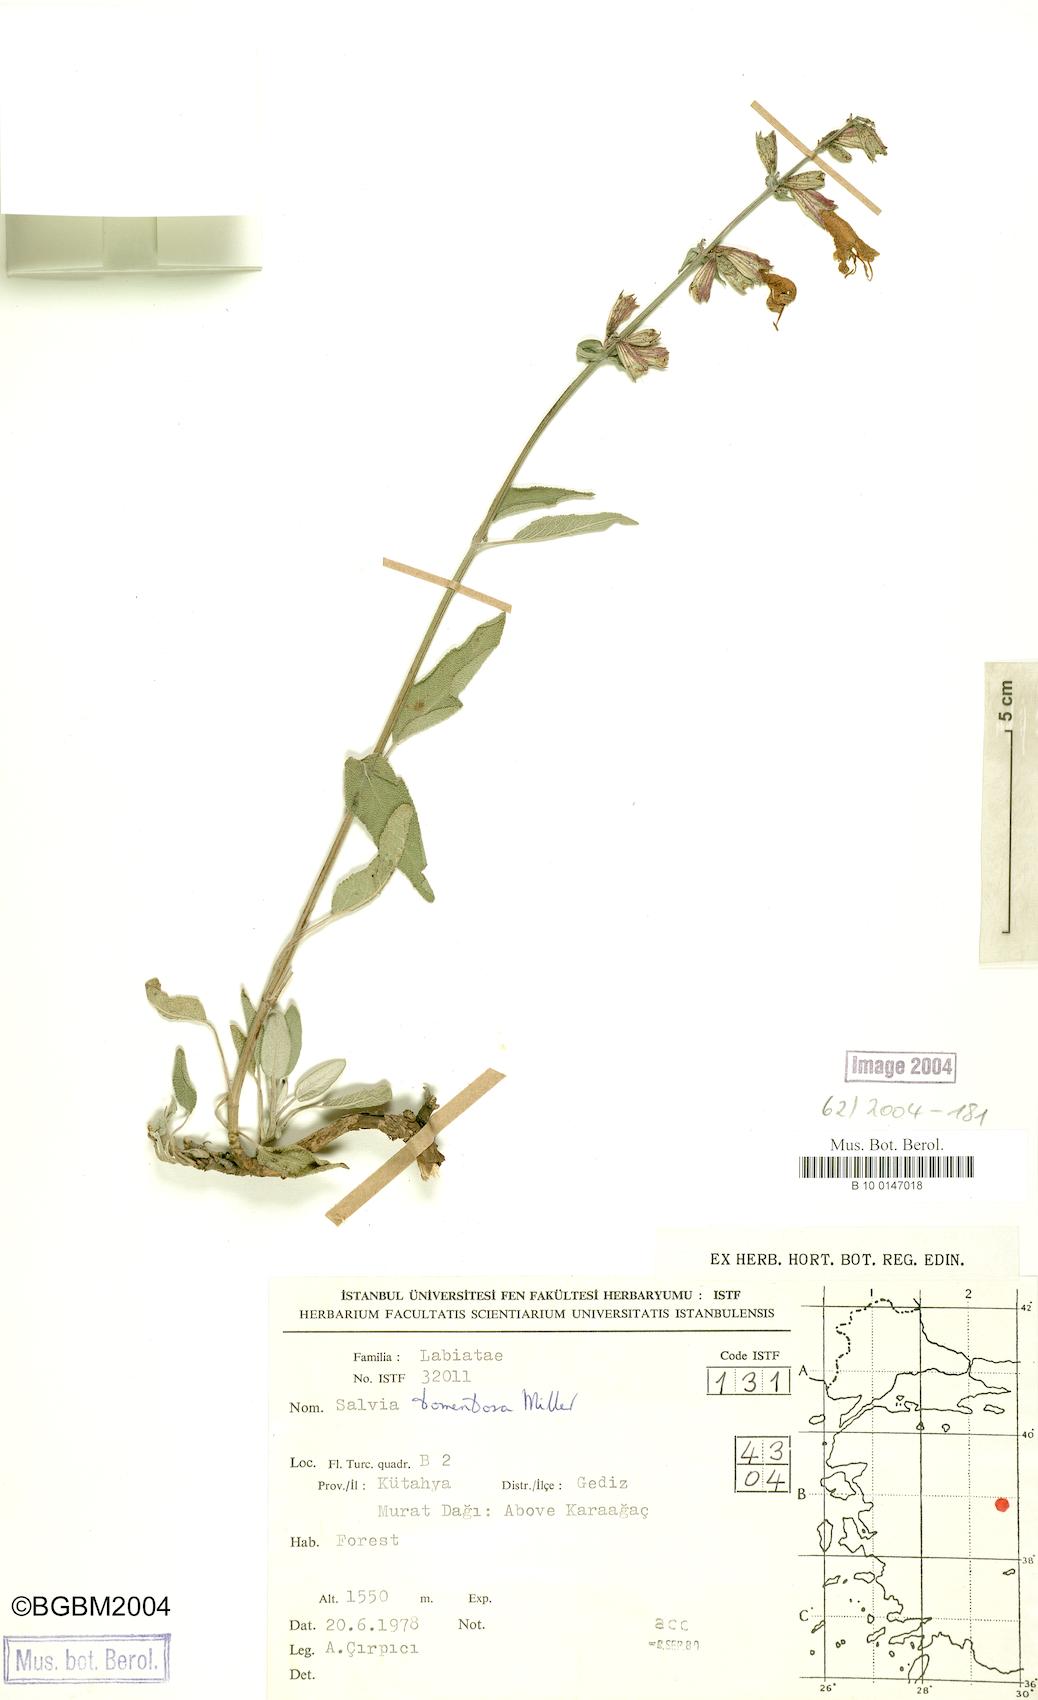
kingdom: Plantae
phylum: Tracheophyta
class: Magnoliopsida
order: Lamiales
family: Lamiaceae
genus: Salvia
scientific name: Salvia tomentosa
